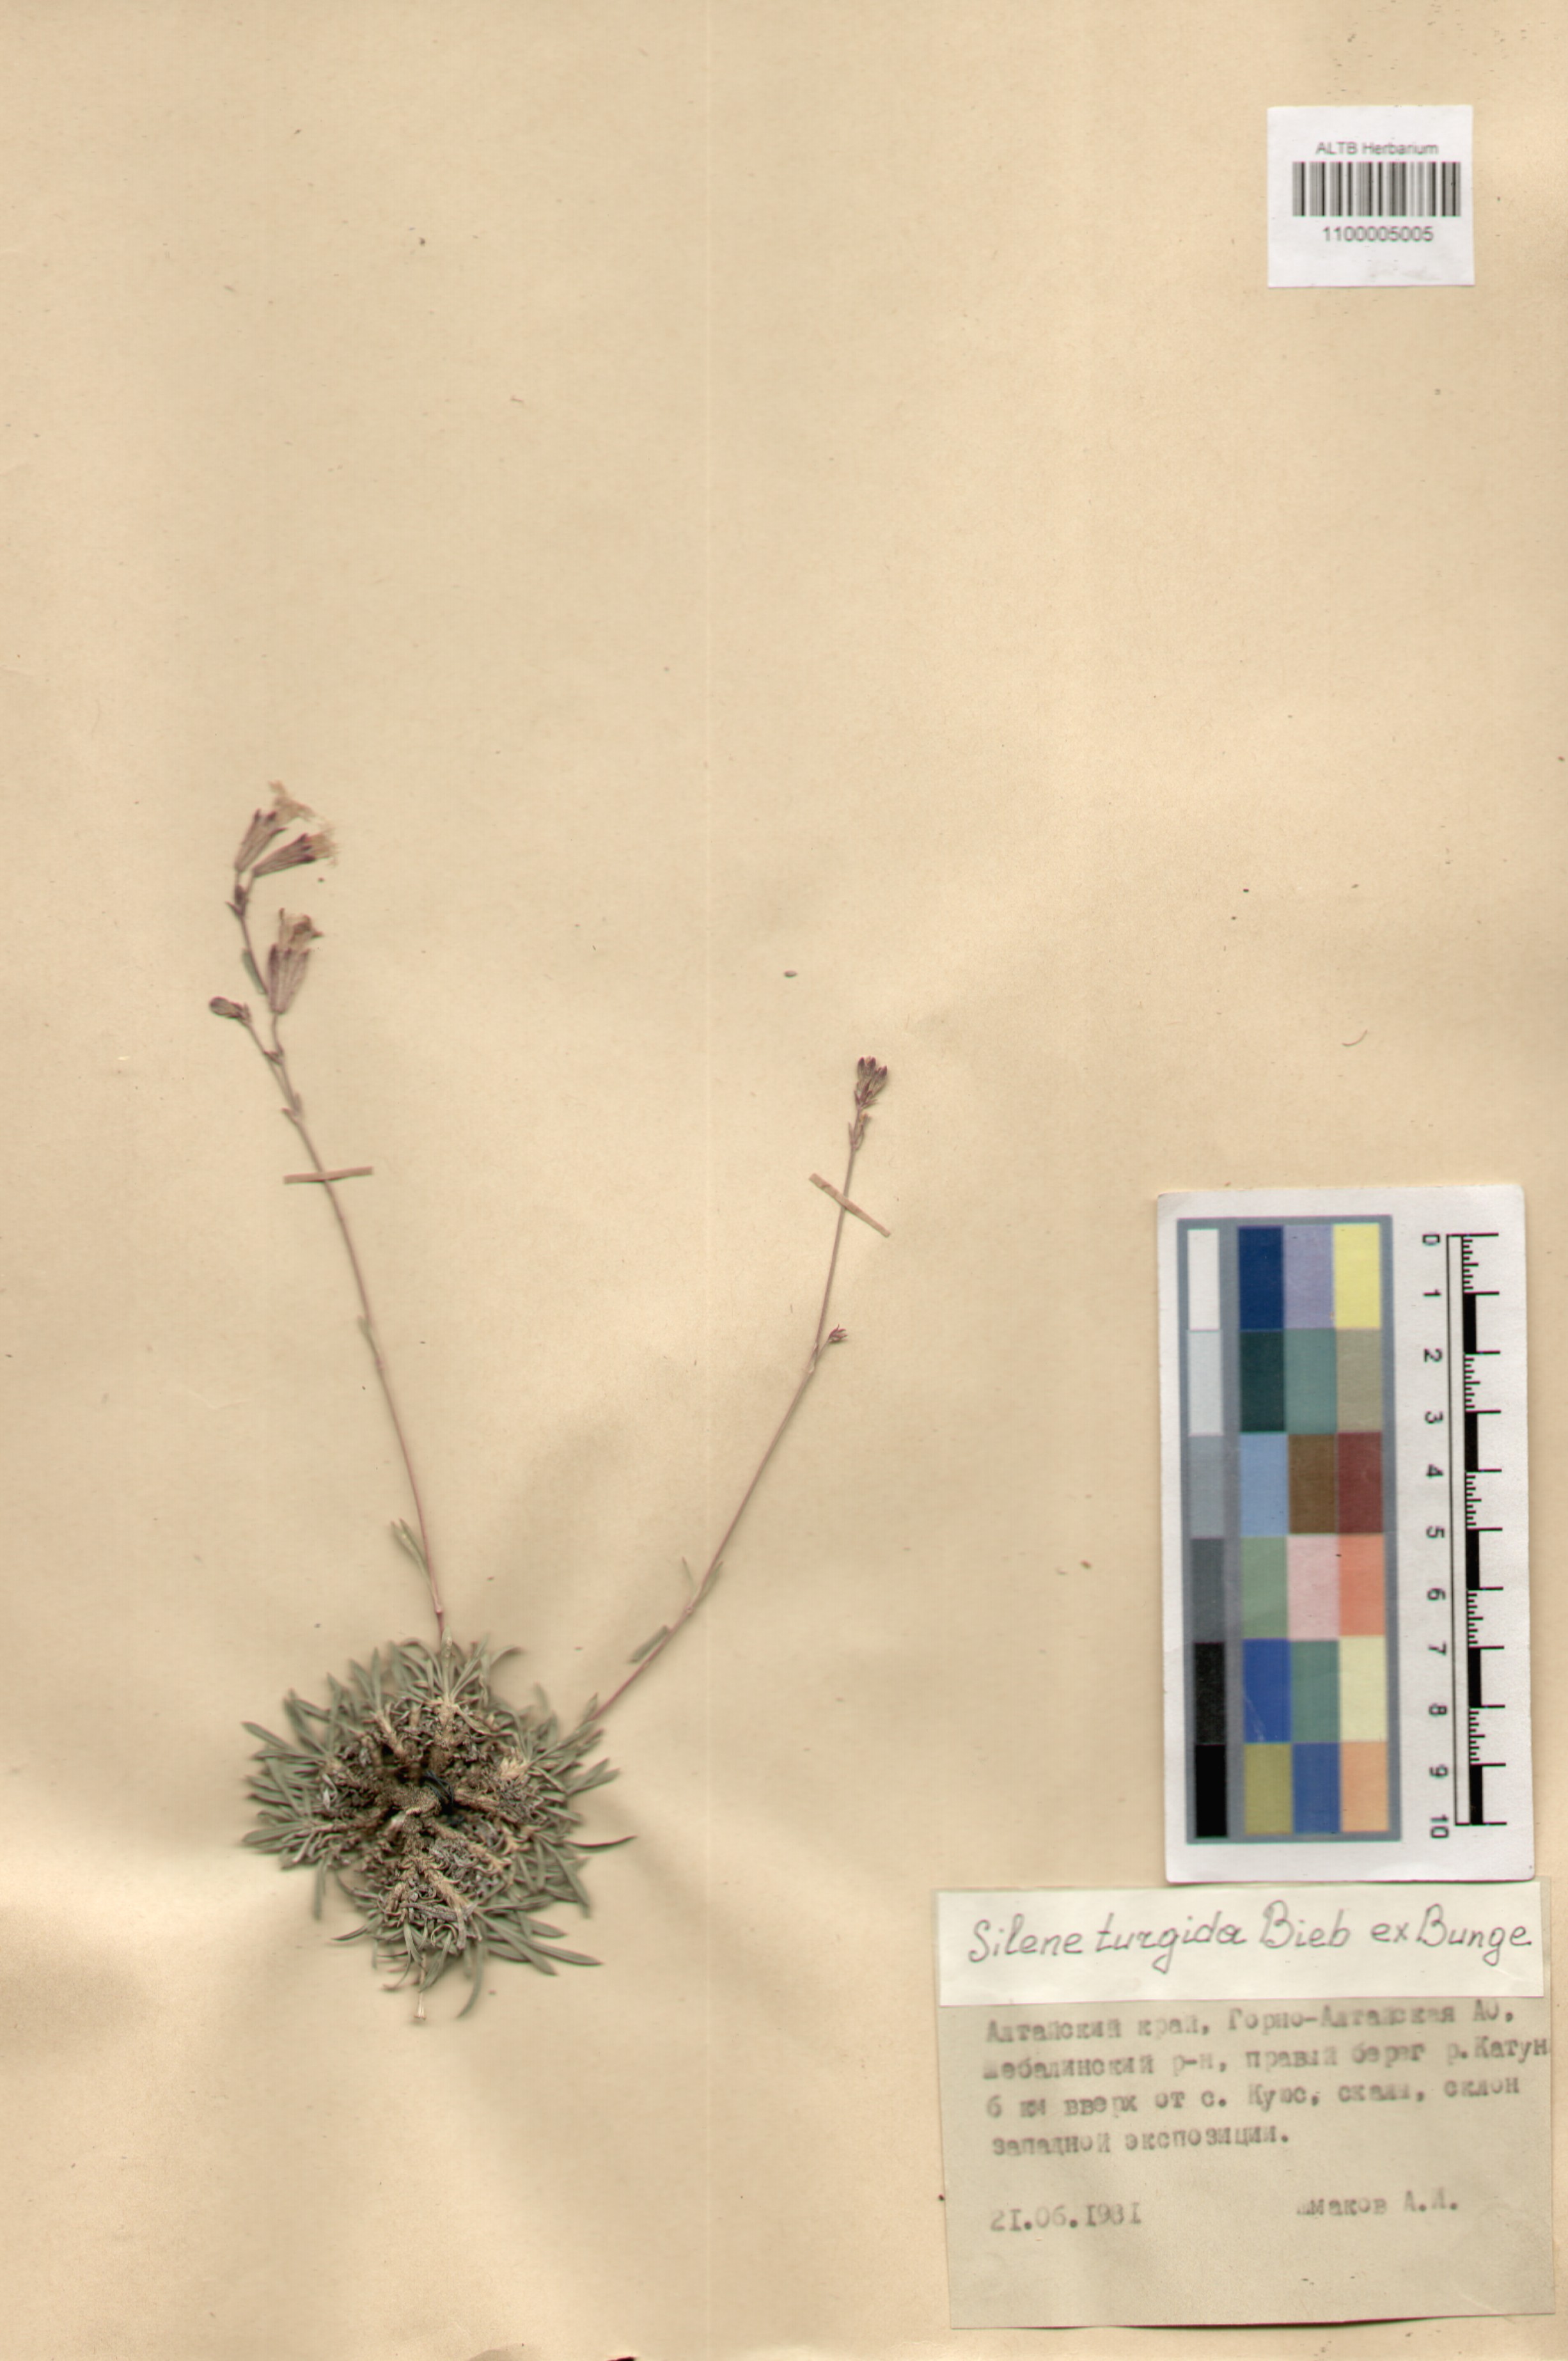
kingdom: Plantae
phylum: Tracheophyta
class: Magnoliopsida
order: Caryophyllales
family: Caryophyllaceae
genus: Silene
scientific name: Silene turgida
